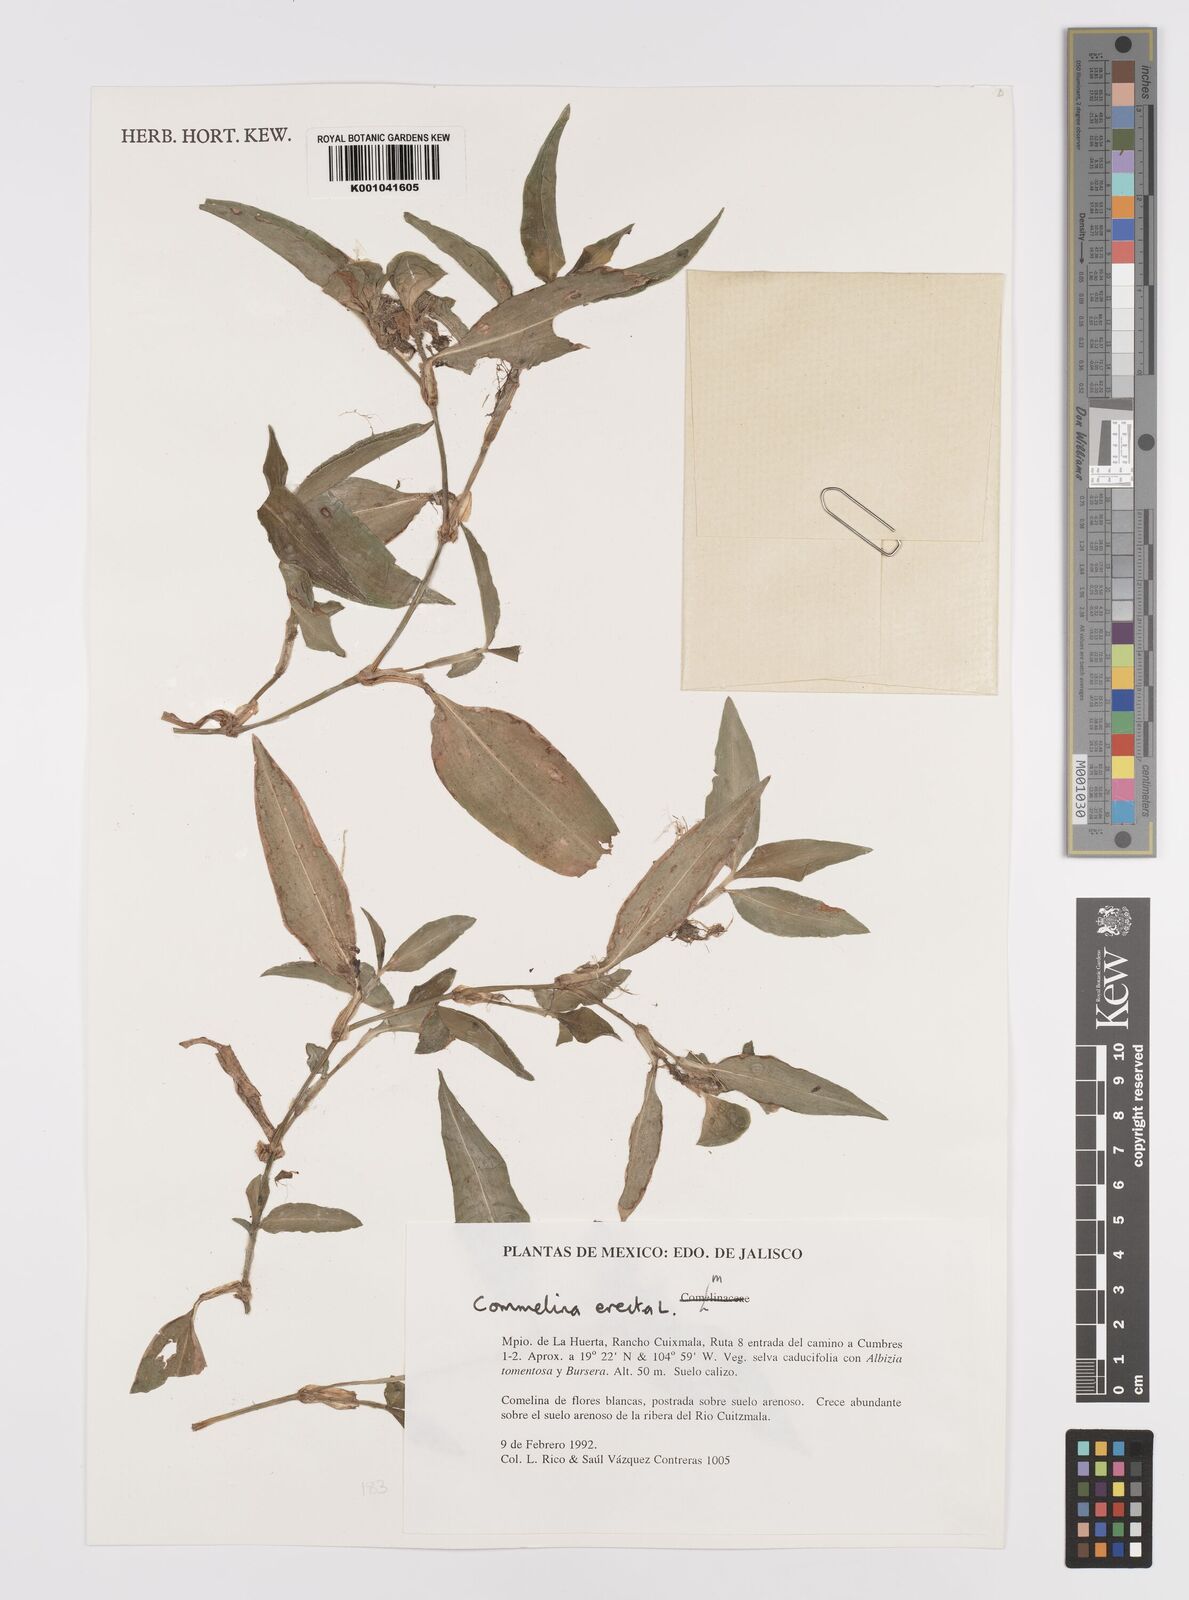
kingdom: Plantae
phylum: Tracheophyta
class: Liliopsida
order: Commelinales
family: Commelinaceae
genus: Commelina
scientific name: Commelina erecta
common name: Blousel blommetjie
